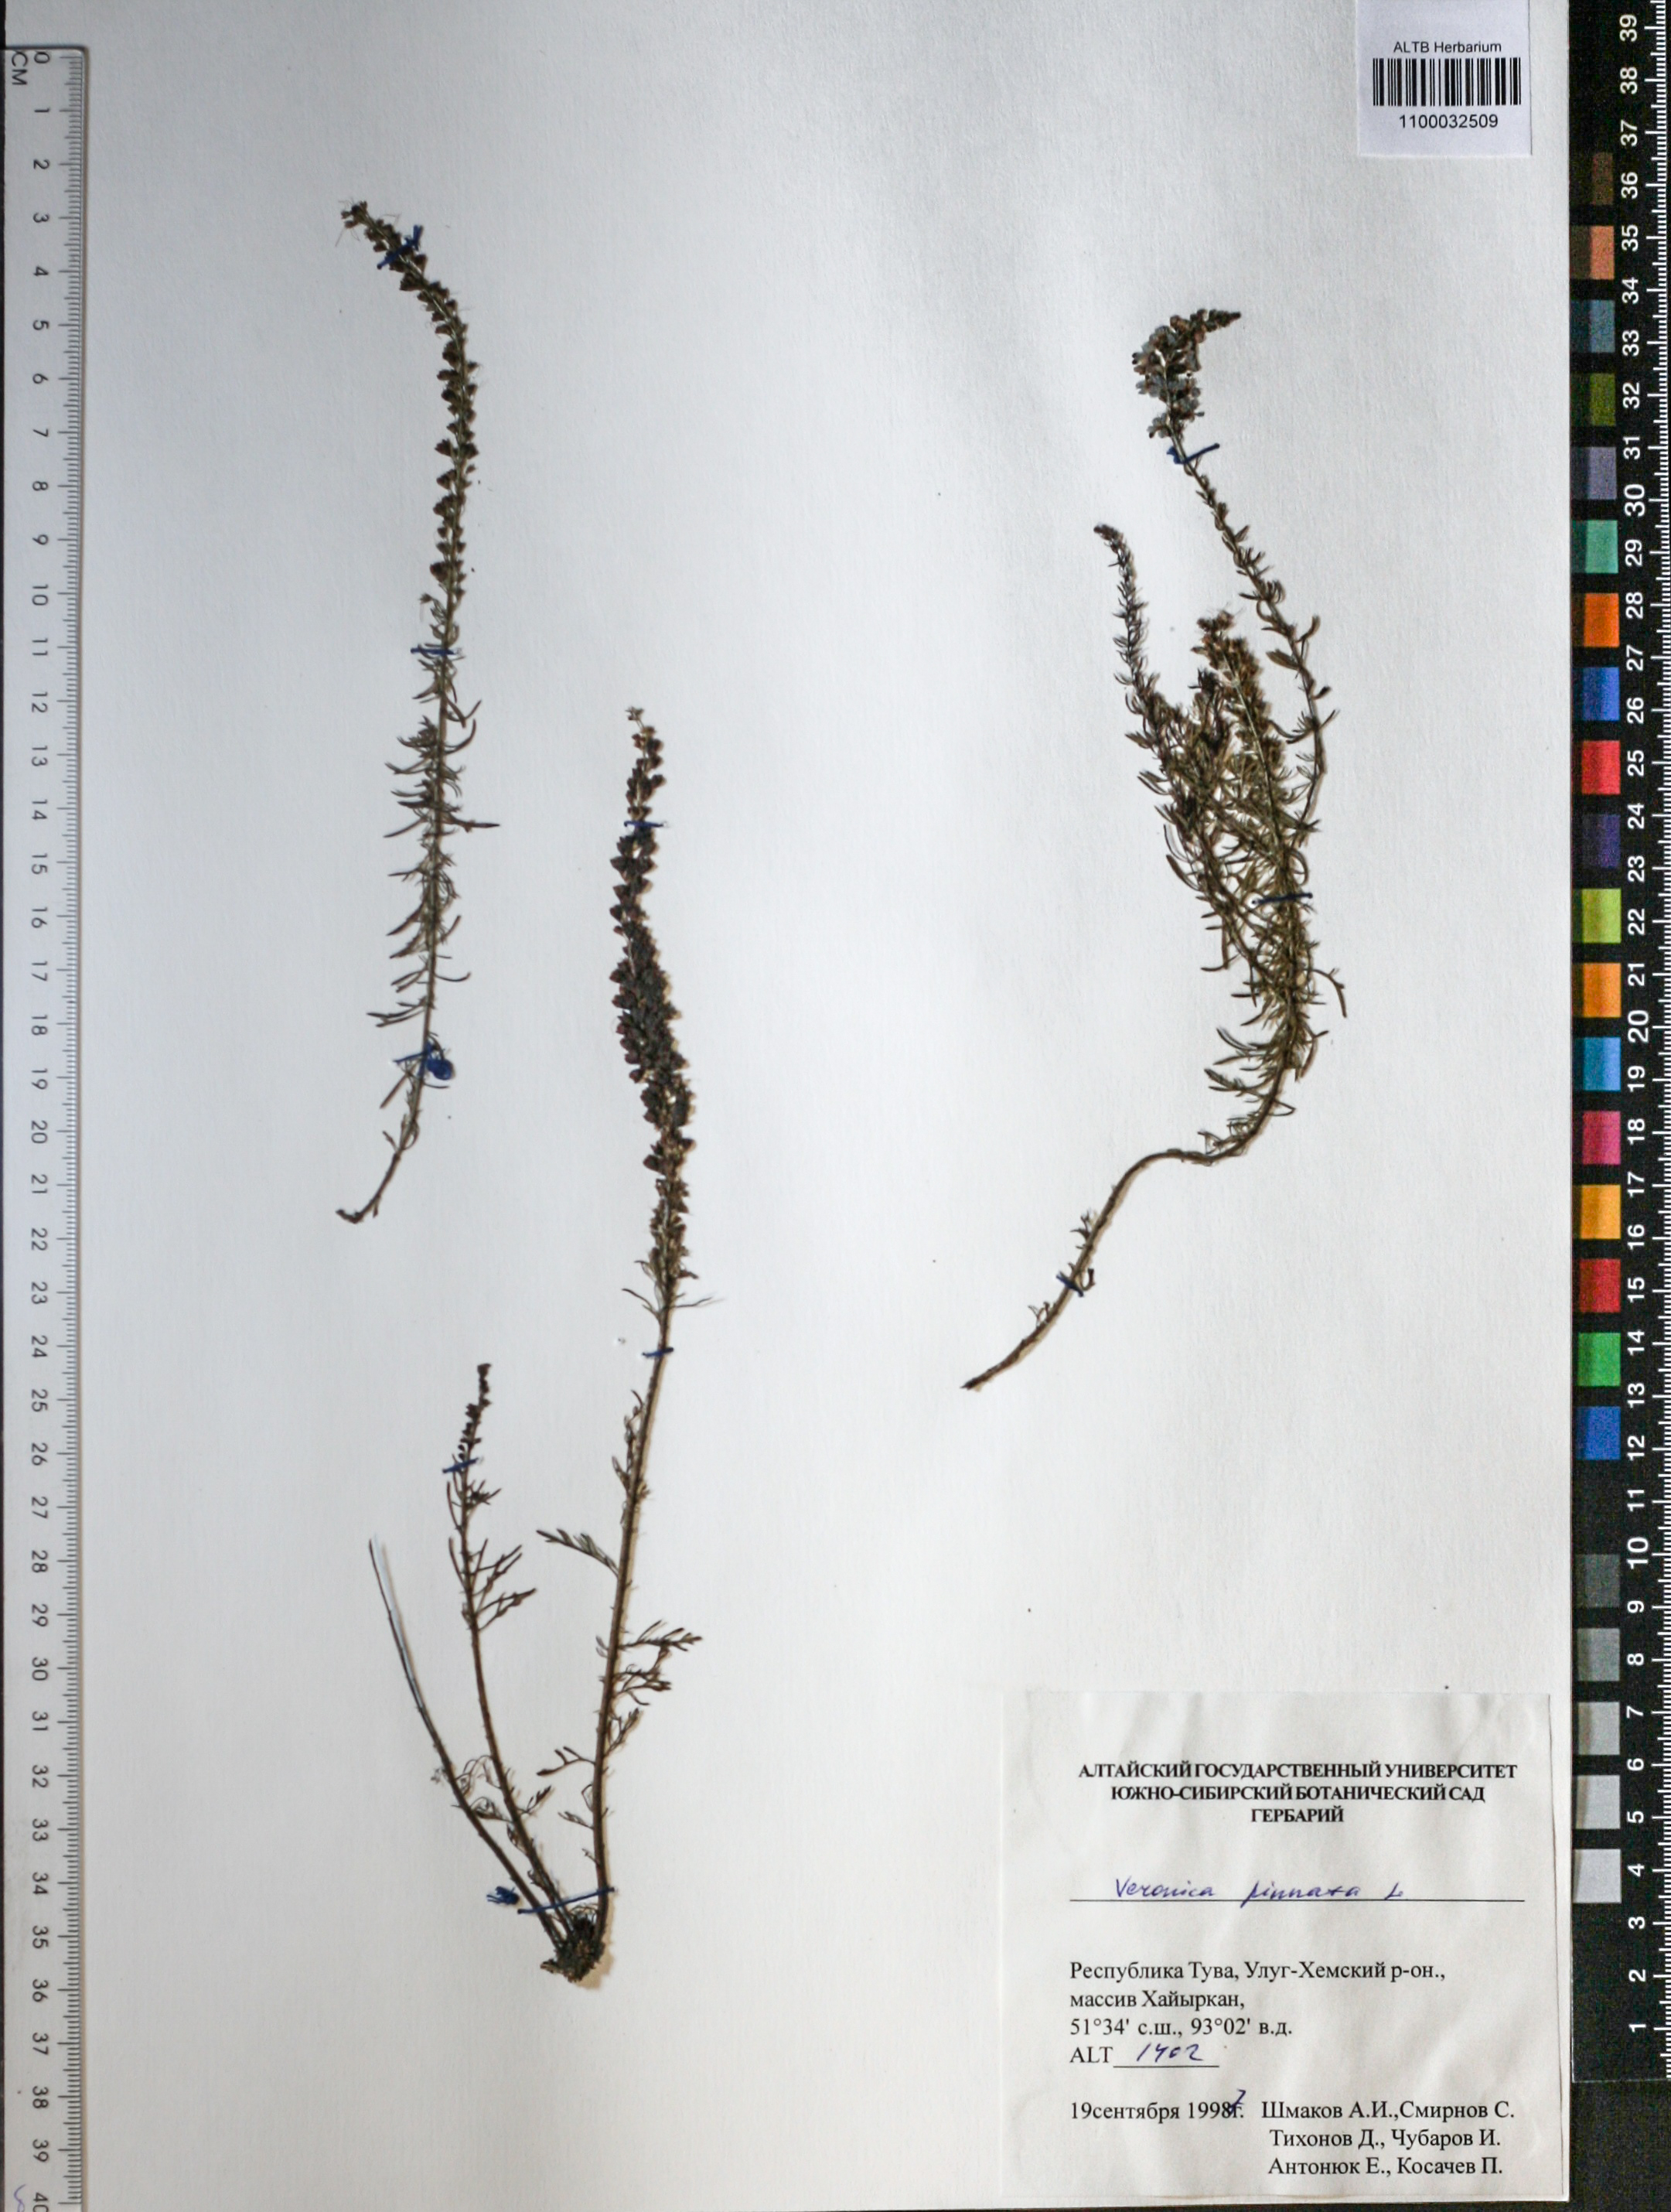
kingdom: Plantae
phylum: Tracheophyta
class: Magnoliopsida
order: Lamiales
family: Plantaginaceae
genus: Veronica
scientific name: Veronica pinnata
